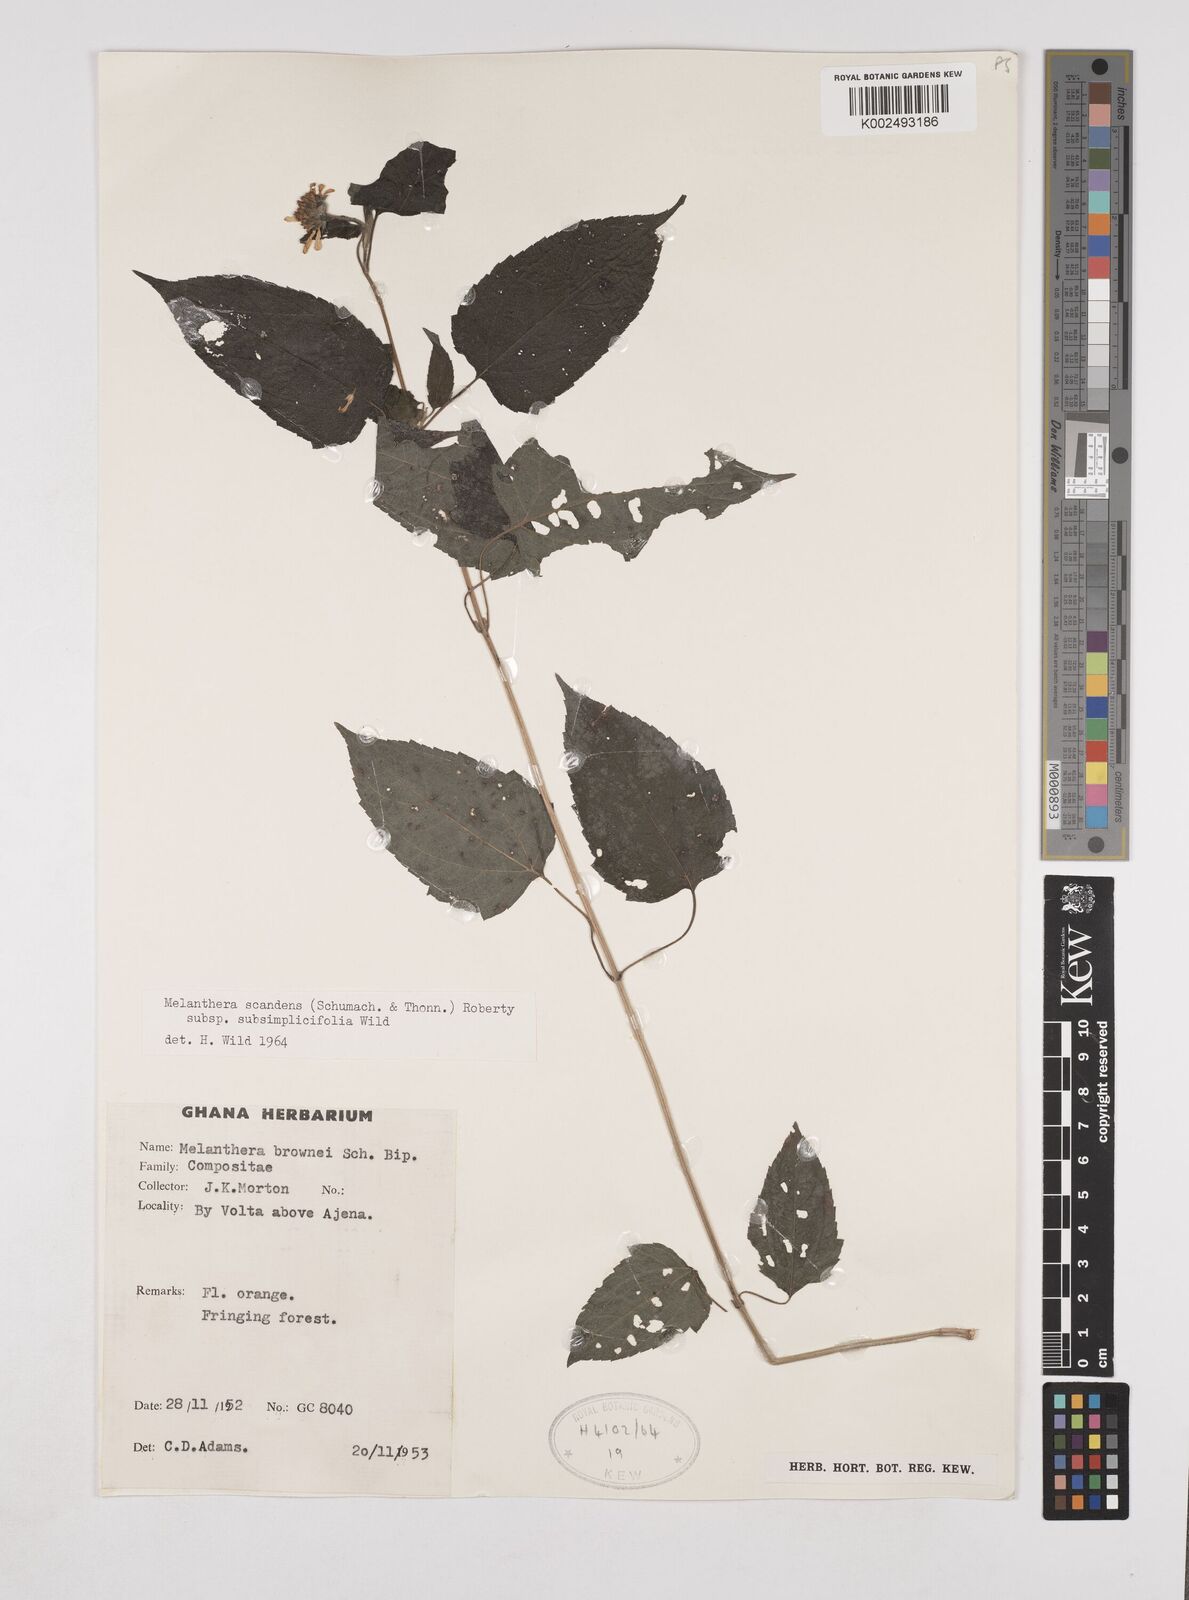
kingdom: Plantae
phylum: Tracheophyta
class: Magnoliopsida
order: Asterales
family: Asteraceae
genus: Lipotriche
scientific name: Lipotriche scandens
